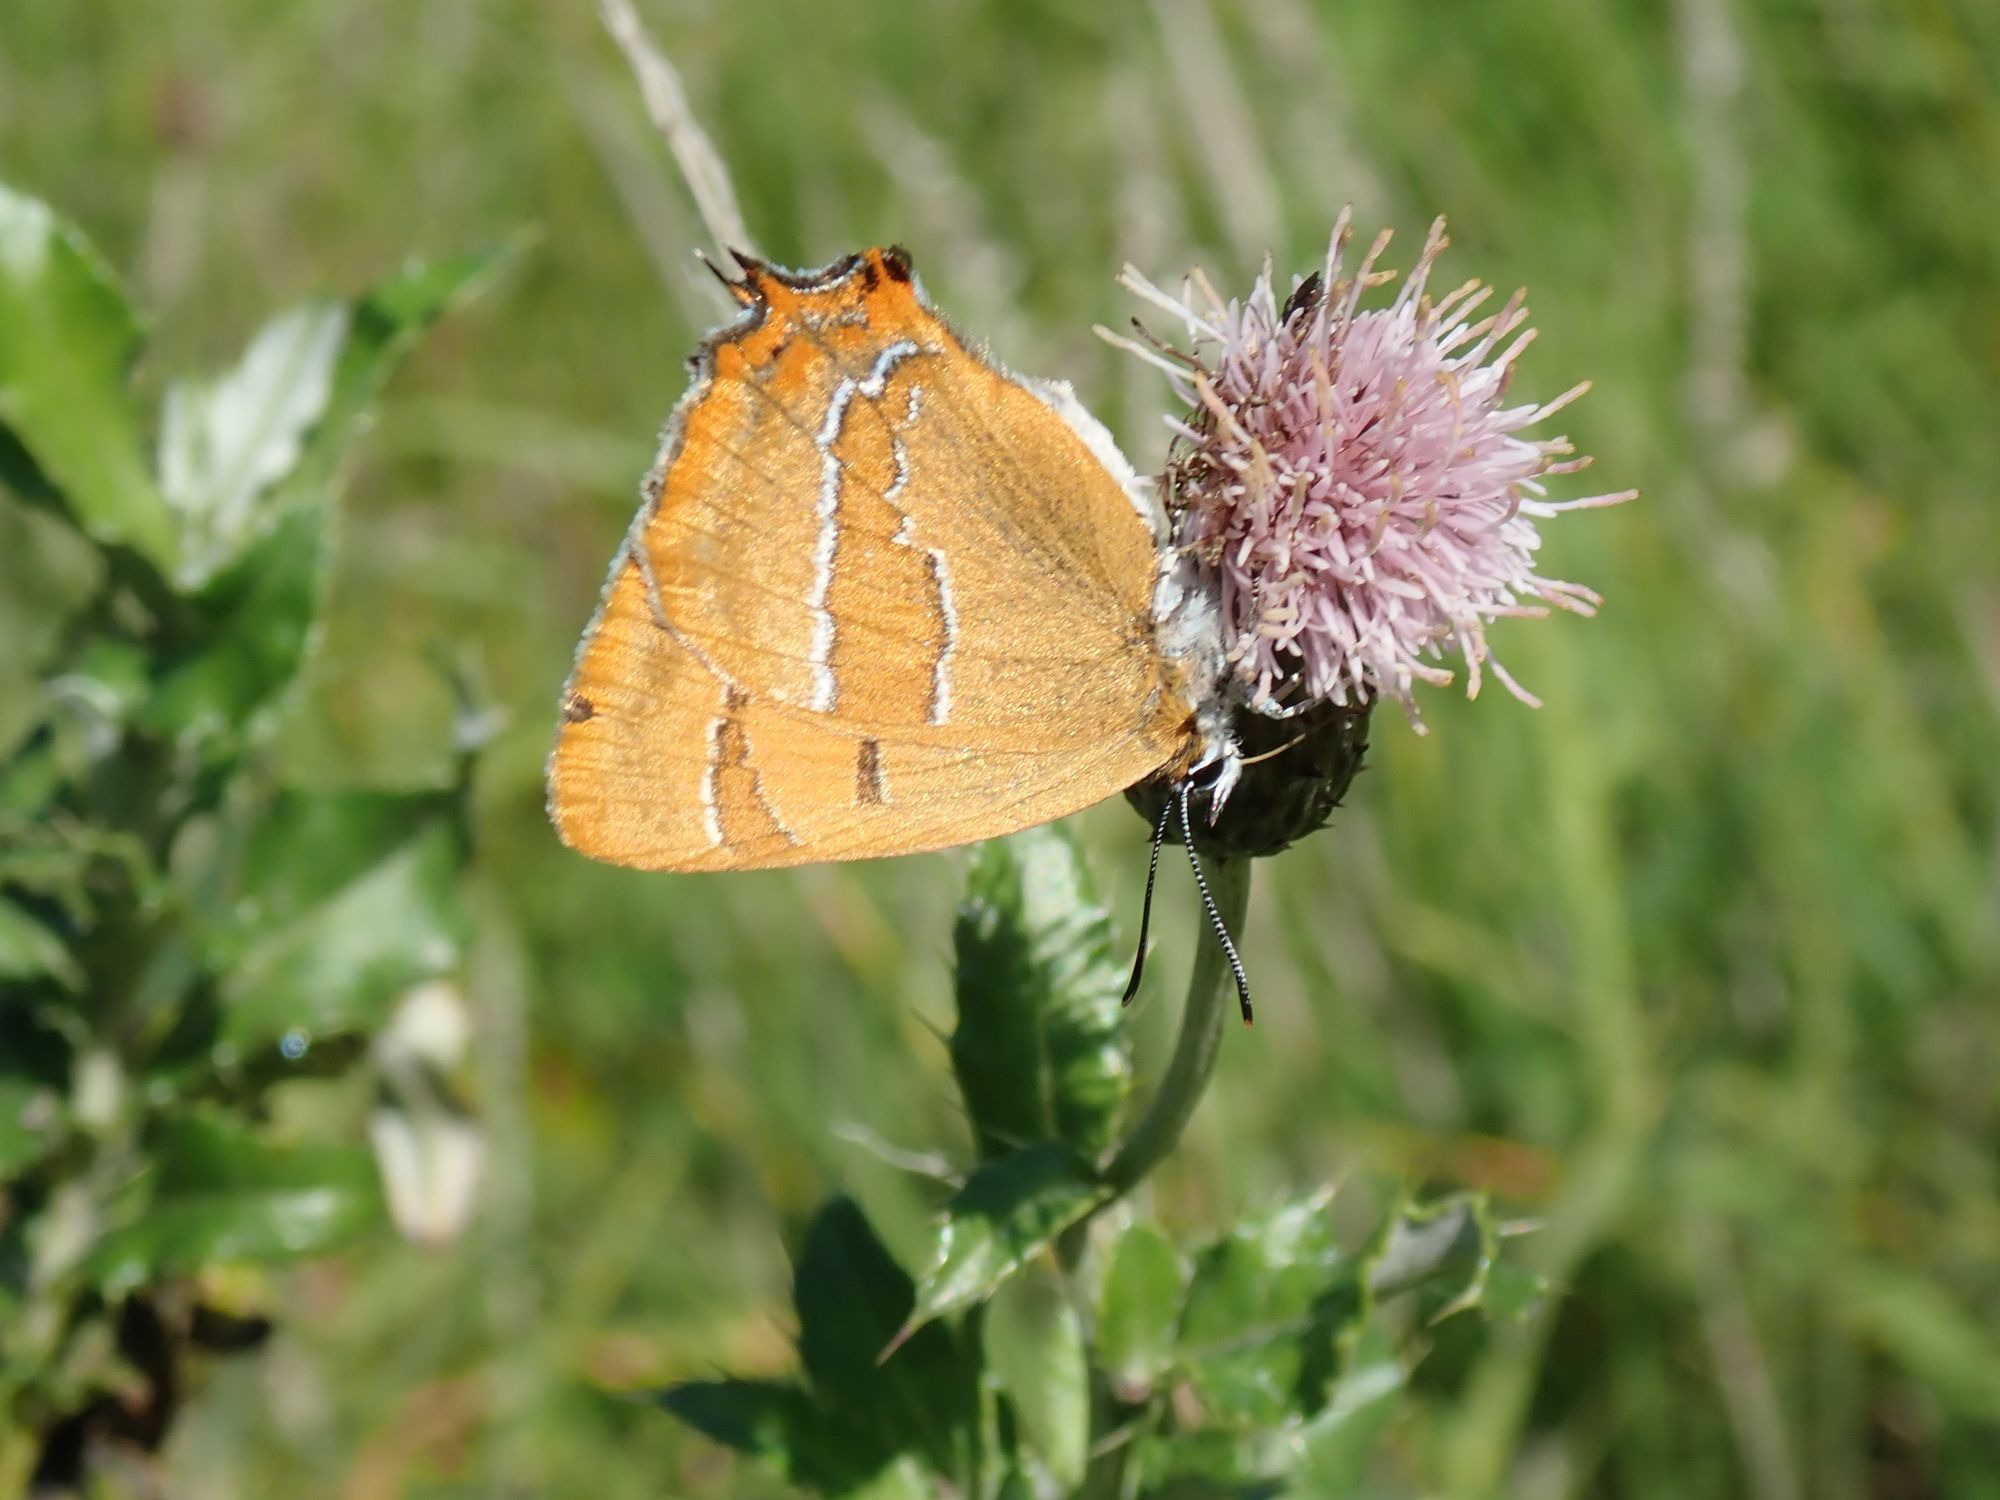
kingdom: Animalia
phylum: Arthropoda
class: Insecta
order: Lepidoptera
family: Lycaenidae
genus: Thecla
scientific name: Thecla betulae
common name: Guldhale
